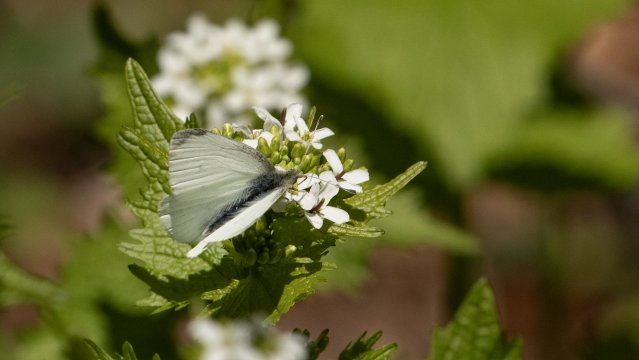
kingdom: Animalia
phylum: Arthropoda
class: Insecta
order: Lepidoptera
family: Pieridae
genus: Pieris
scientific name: Pieris rapae
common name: Cabbage White
